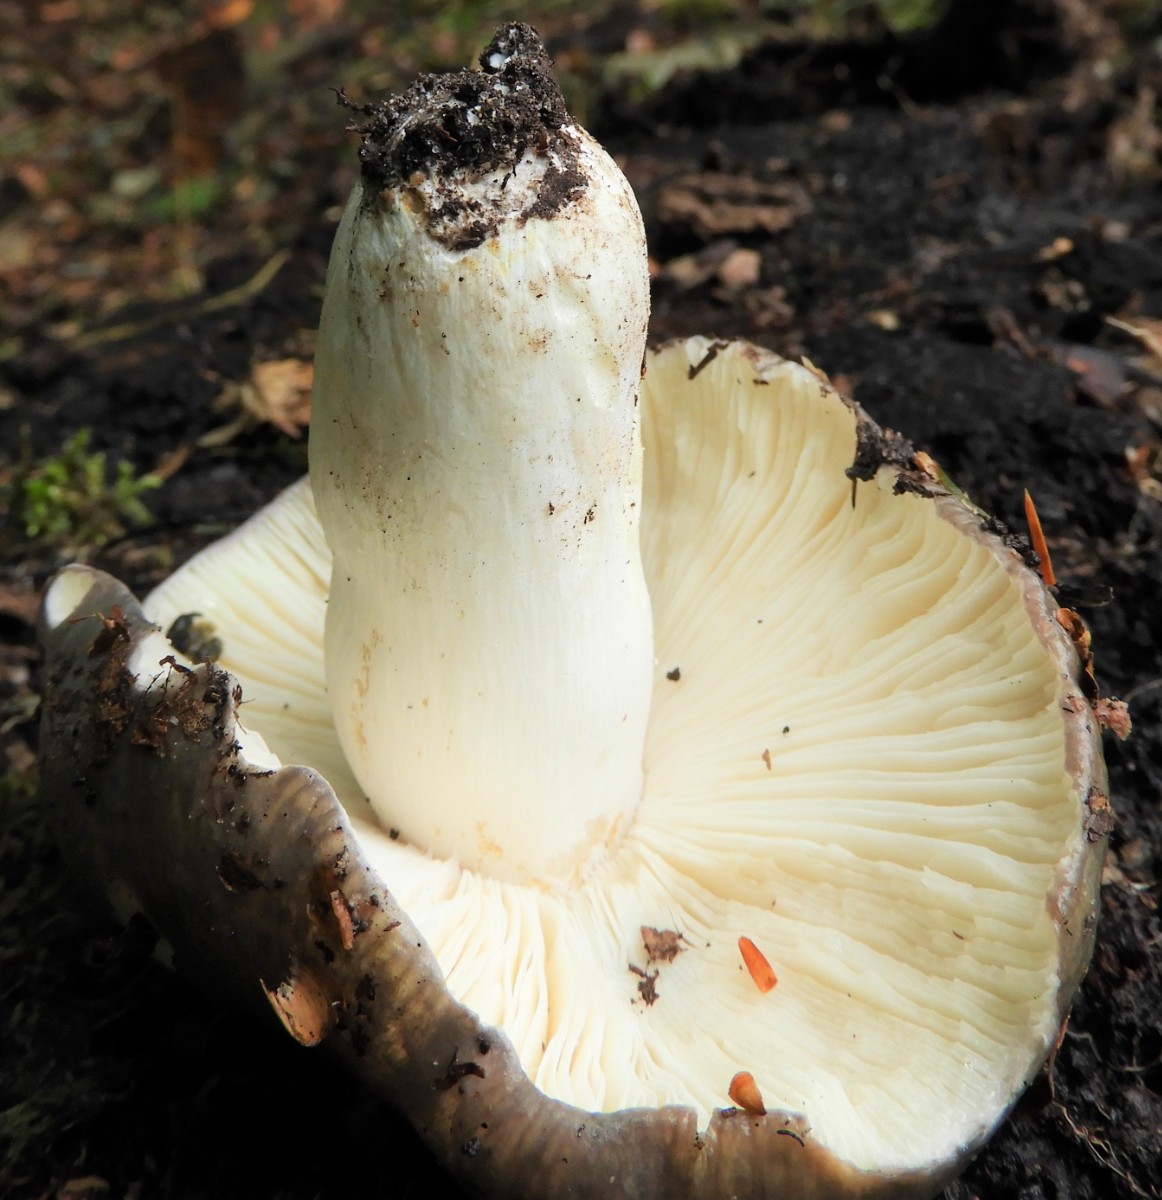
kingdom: Fungi
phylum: Basidiomycota
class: Agaricomycetes
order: Russulales
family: Russulaceae
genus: Russula
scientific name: Russula cyanoxantha
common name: broget skørhat
